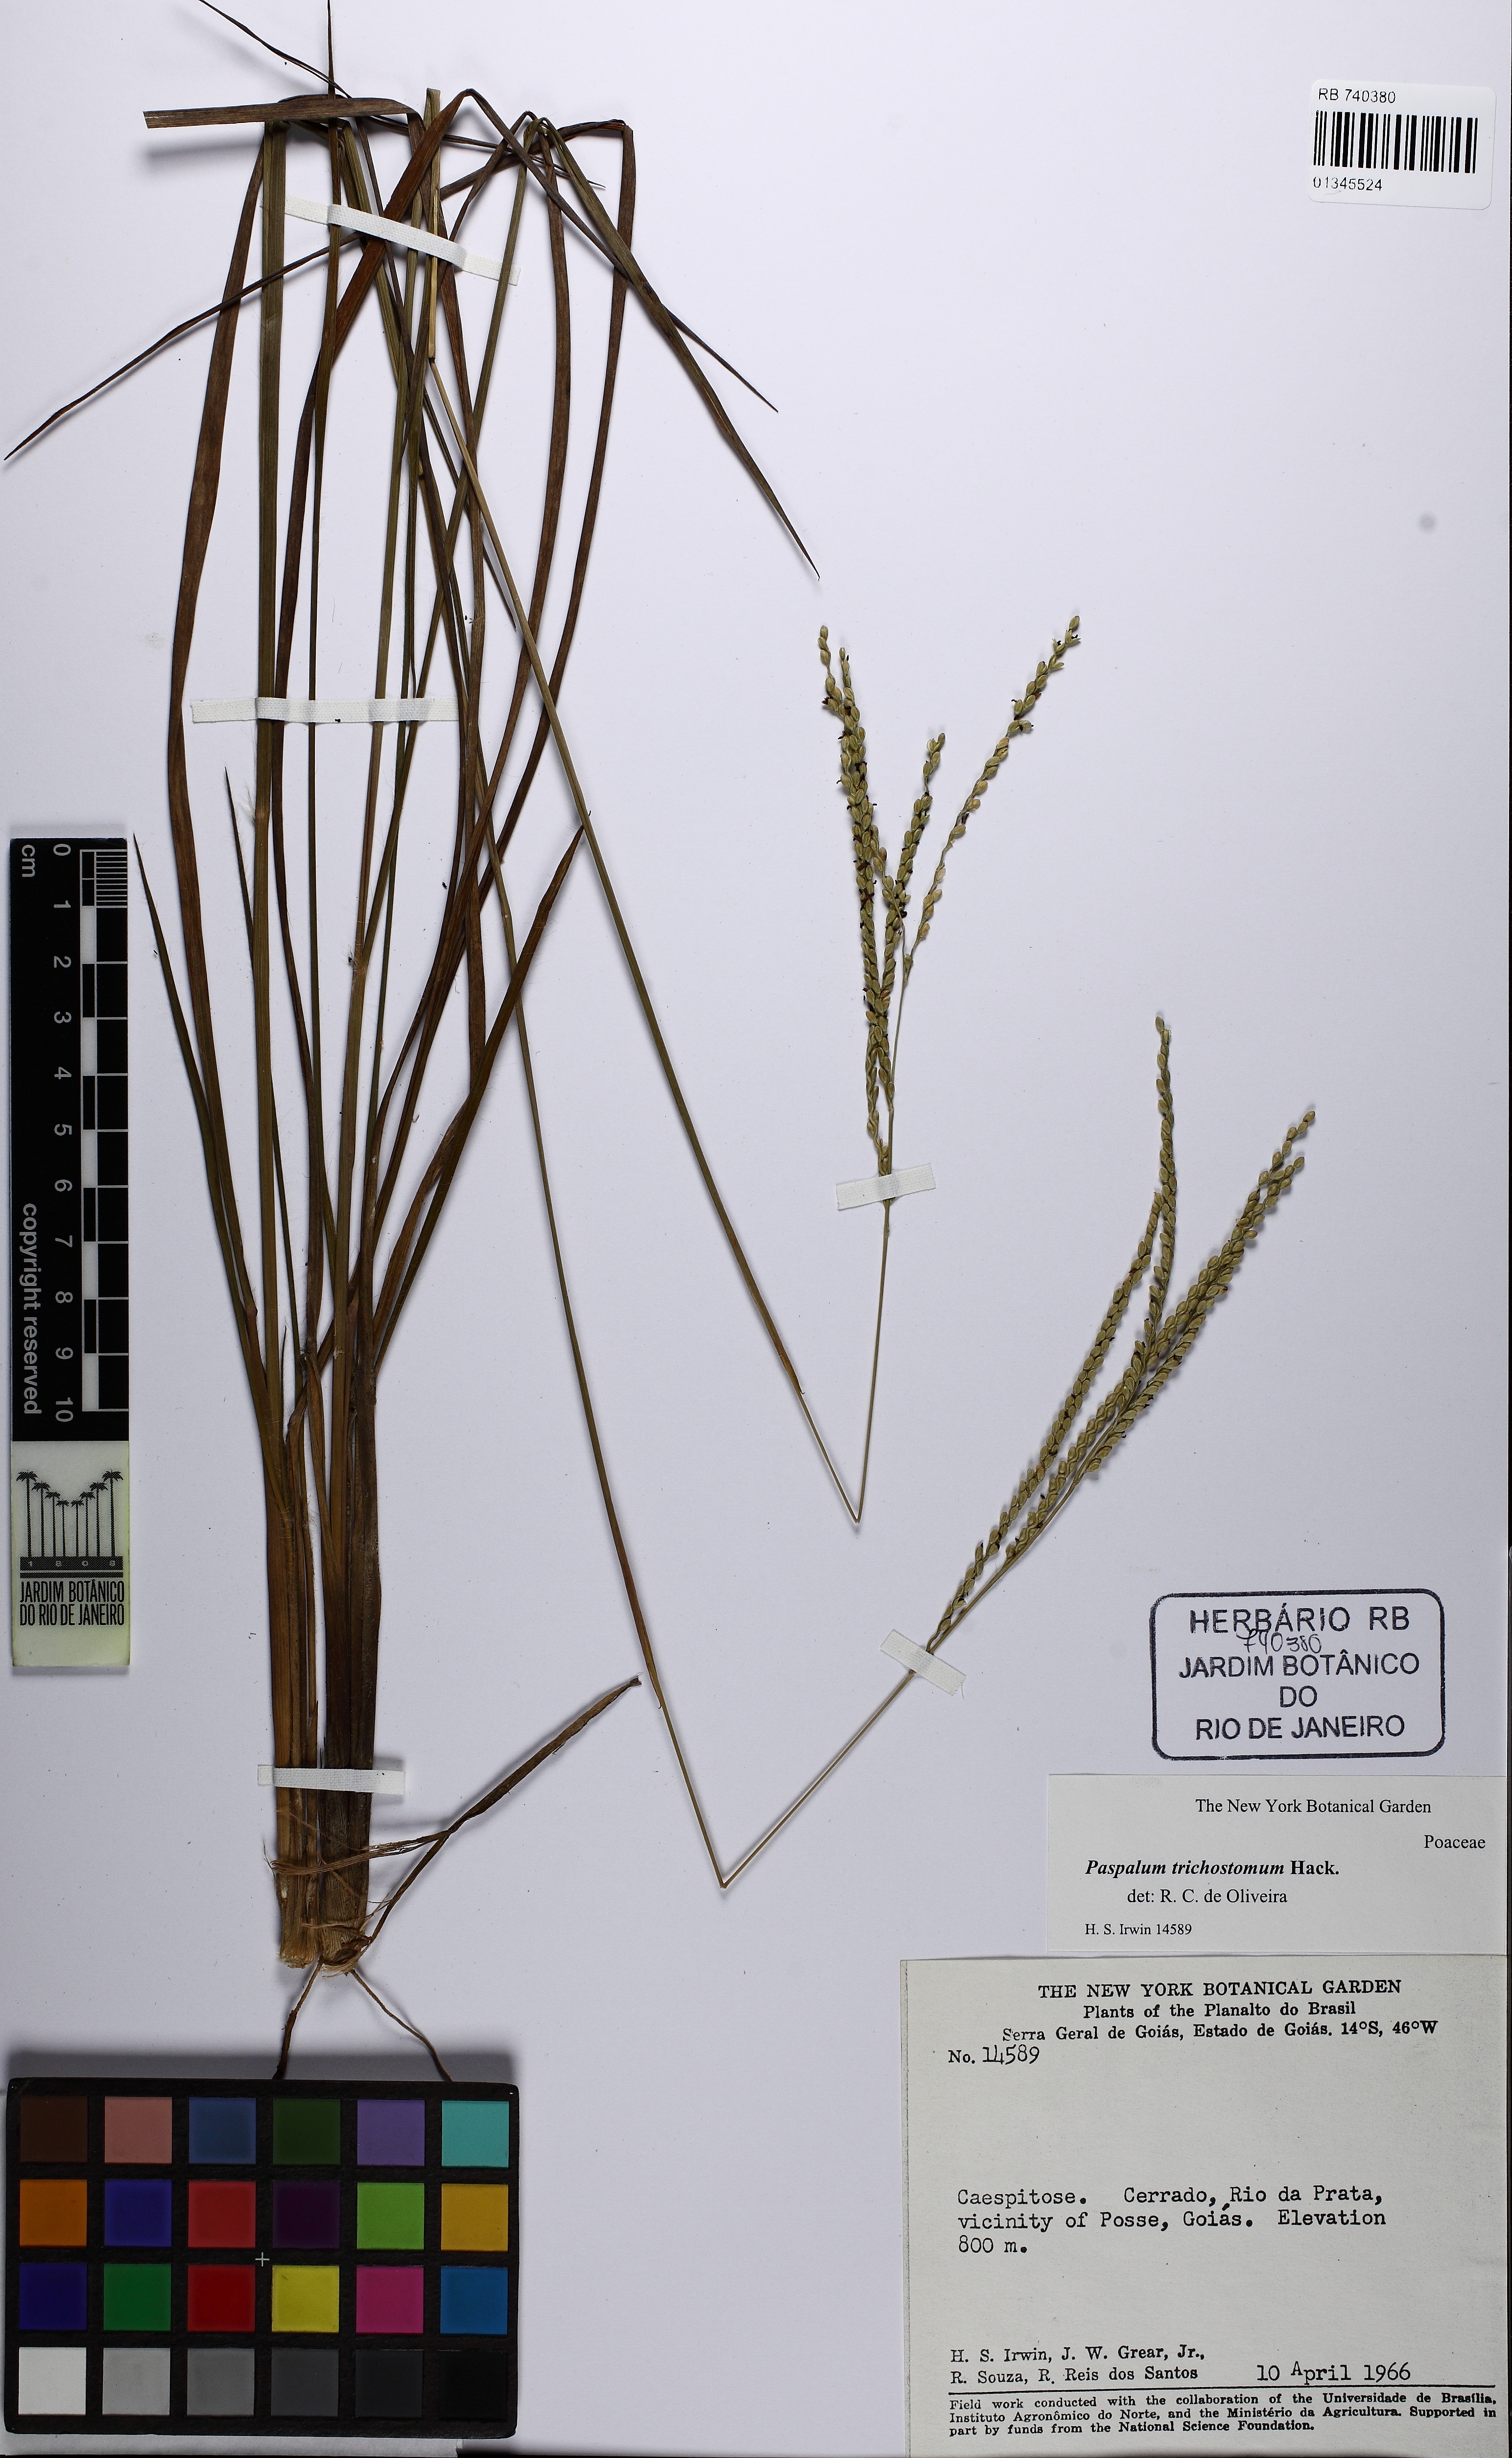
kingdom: Plantae
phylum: Tracheophyta
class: Liliopsida
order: Poales
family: Poaceae
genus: Paspalum
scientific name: Paspalum trichostomum
